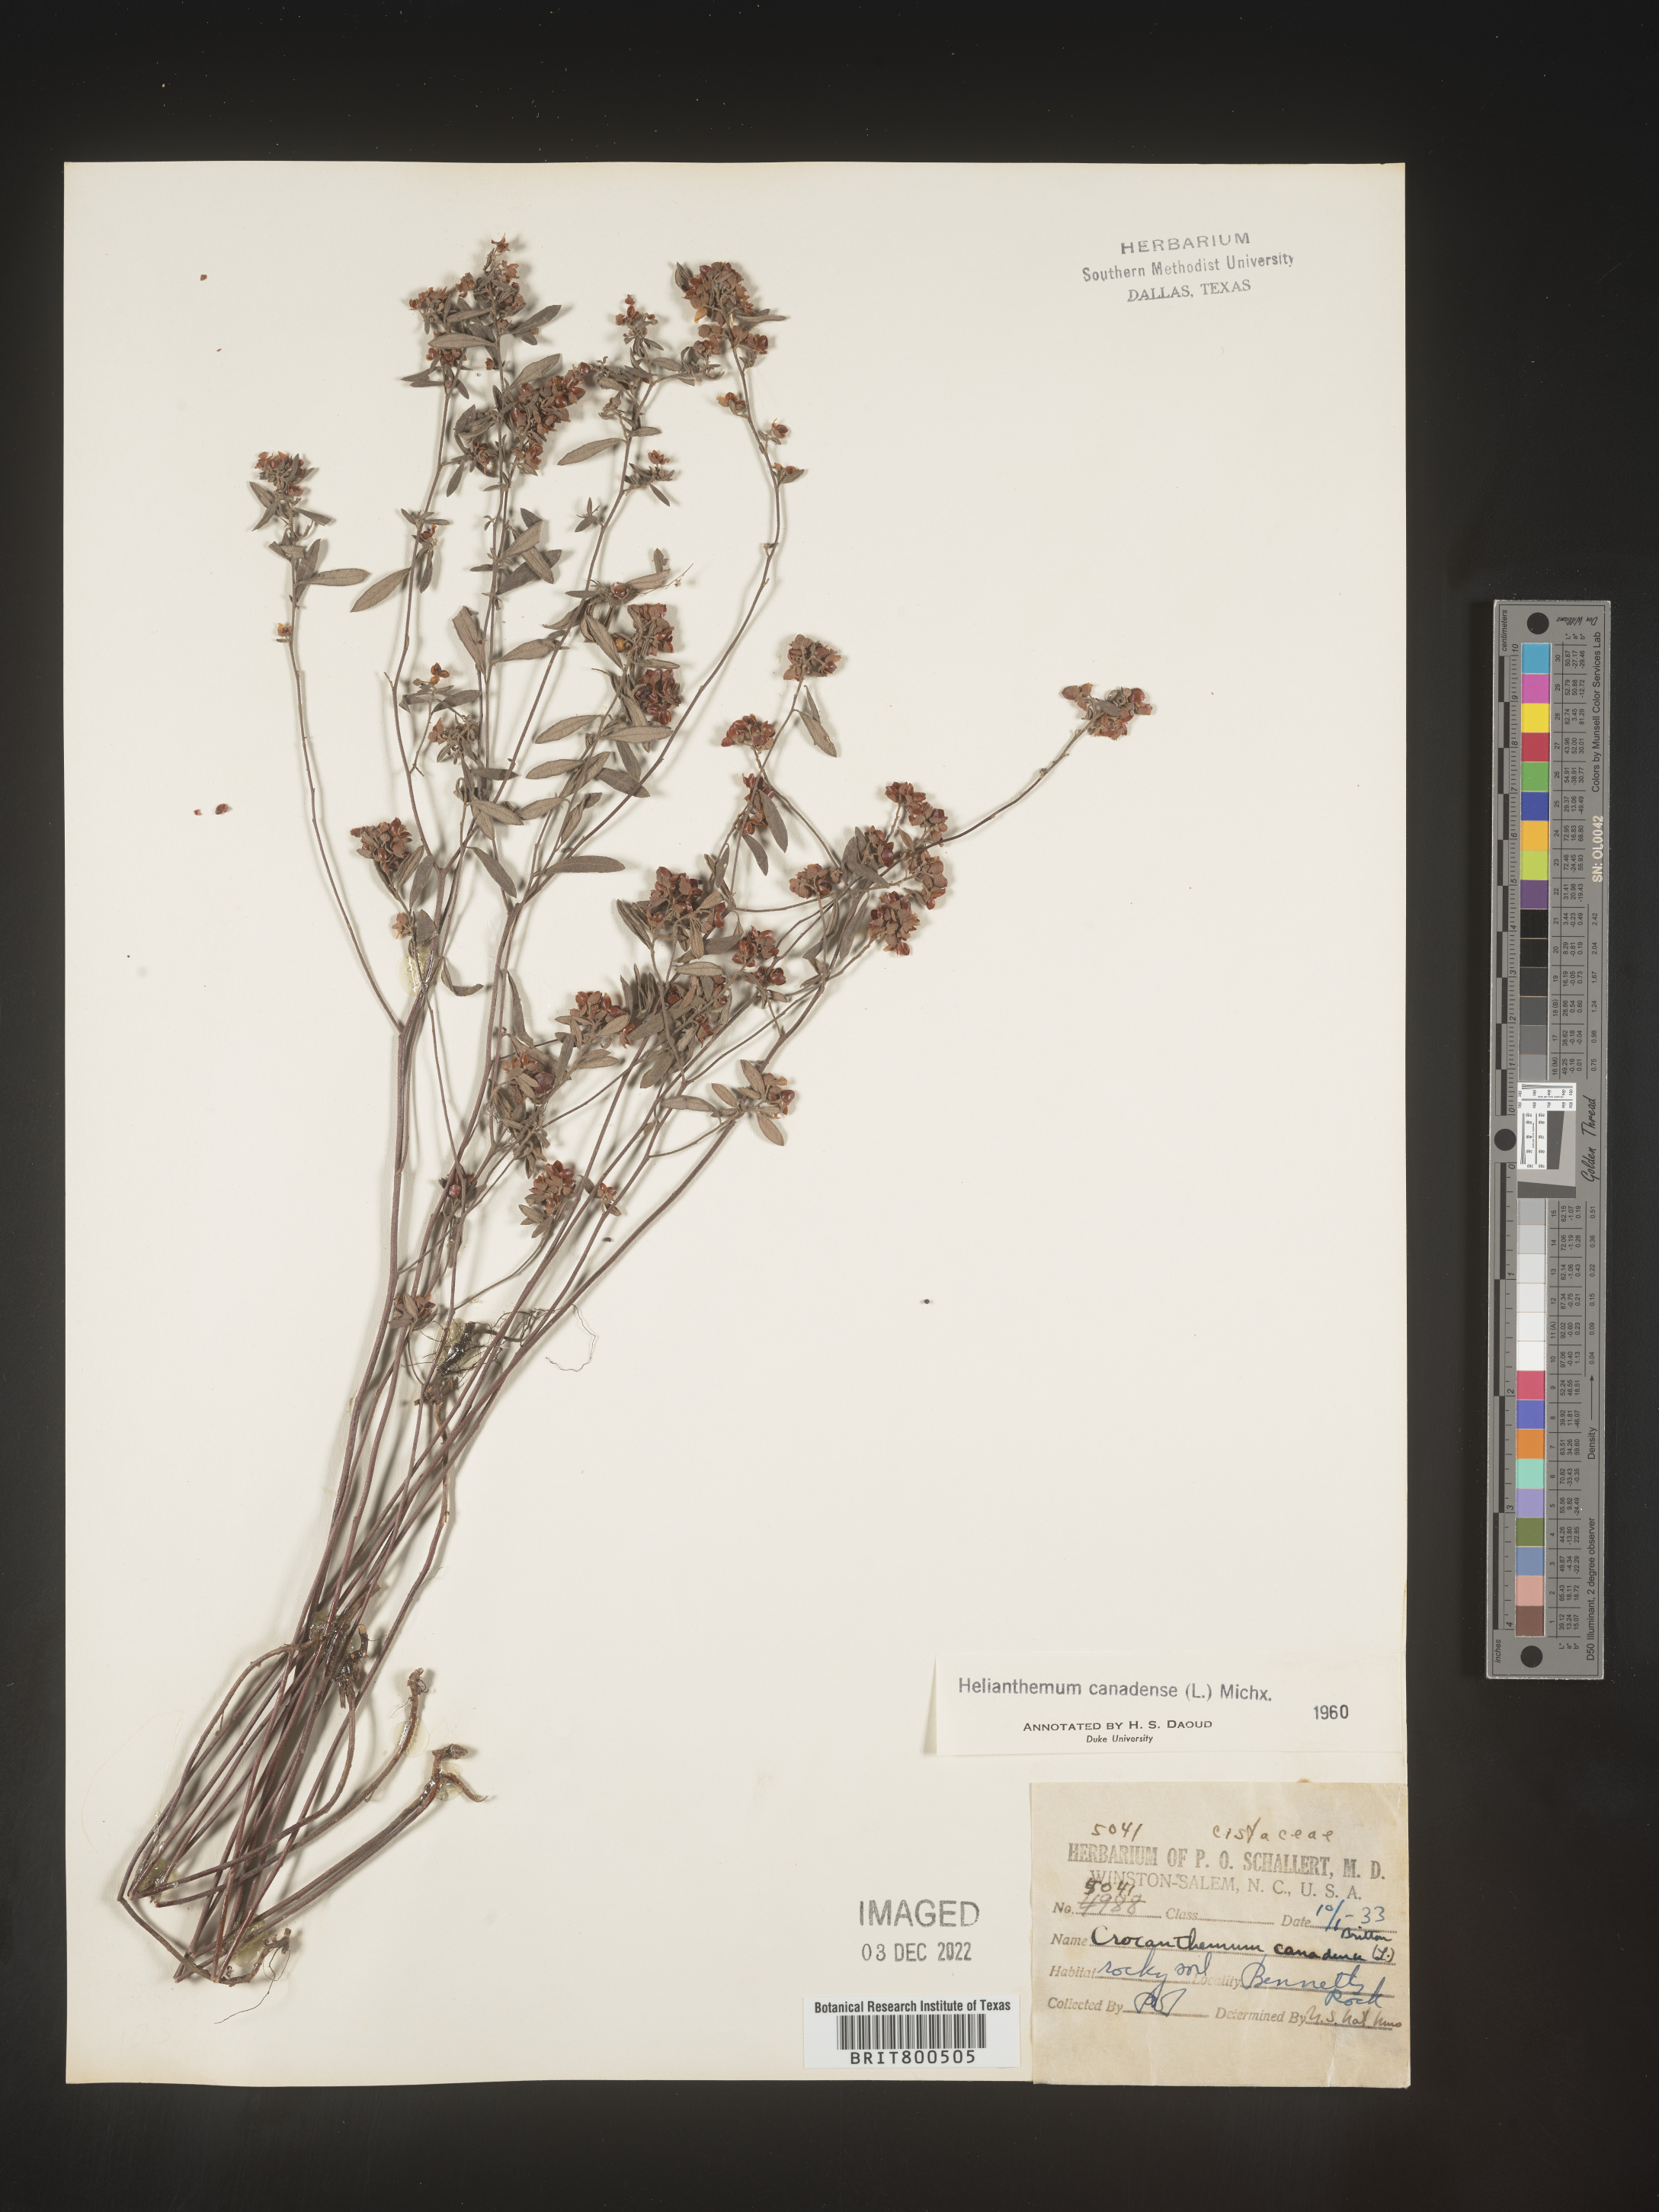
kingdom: Plantae
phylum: Tracheophyta
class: Magnoliopsida
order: Malvales
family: Cistaceae
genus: Crocanthemum
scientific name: Crocanthemum canadense
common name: Canada frostweed
